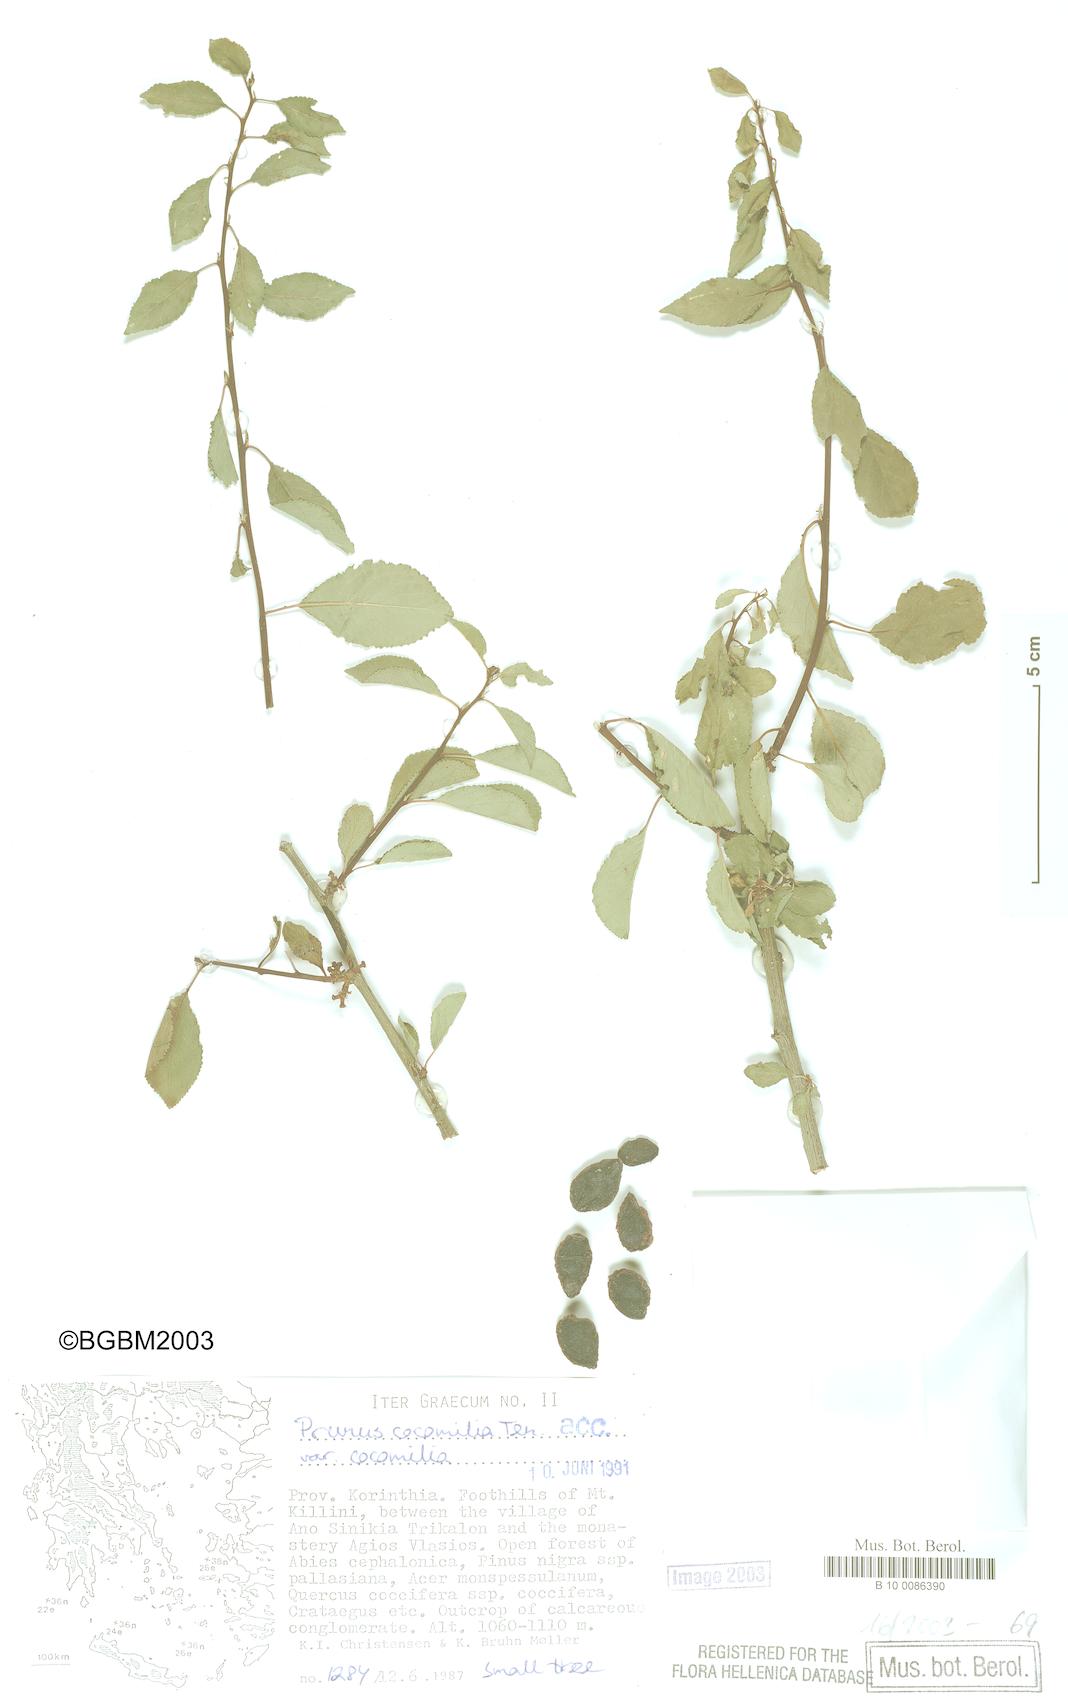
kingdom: Plantae
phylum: Tracheophyta
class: Magnoliopsida
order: Rosales
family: Rosaceae
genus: Prunus
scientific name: Prunus cocomilia
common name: Italian plum
